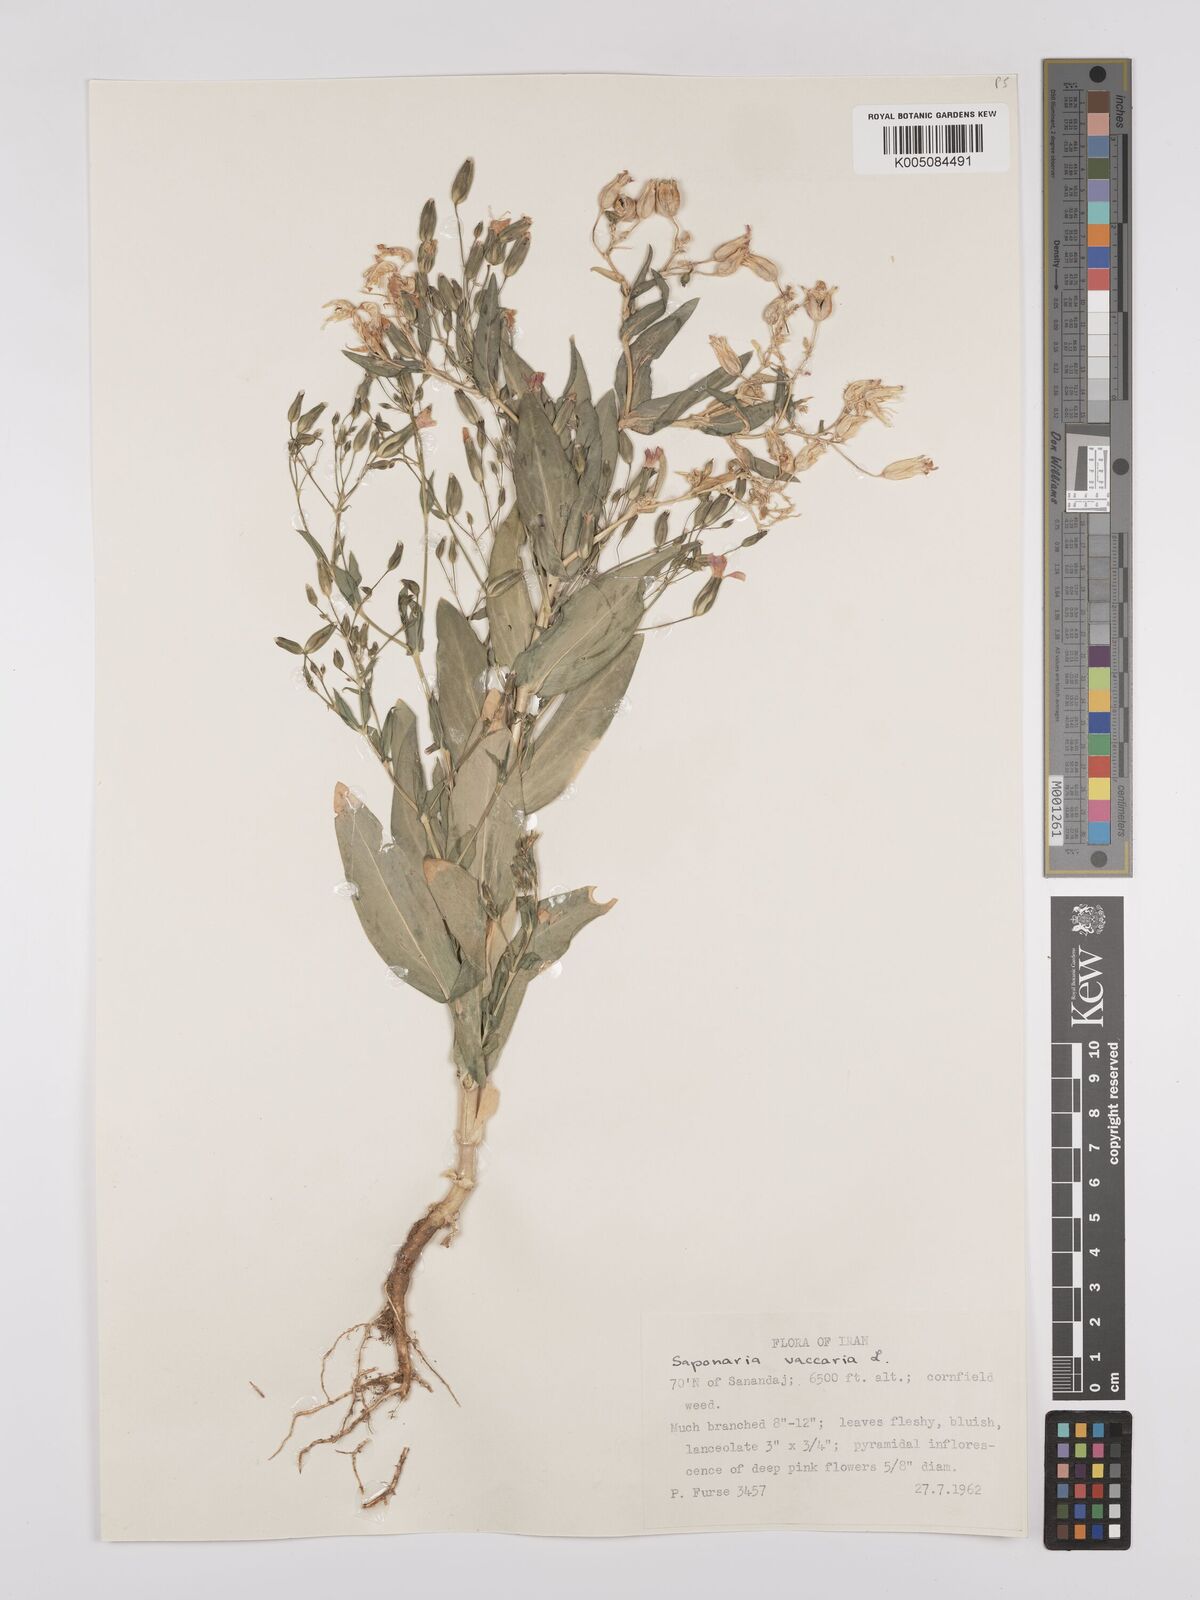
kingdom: Plantae
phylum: Tracheophyta
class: Magnoliopsida
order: Caryophyllales
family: Caryophyllaceae
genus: Gypsophila
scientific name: Gypsophila vaccaria
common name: Cow soapwort
